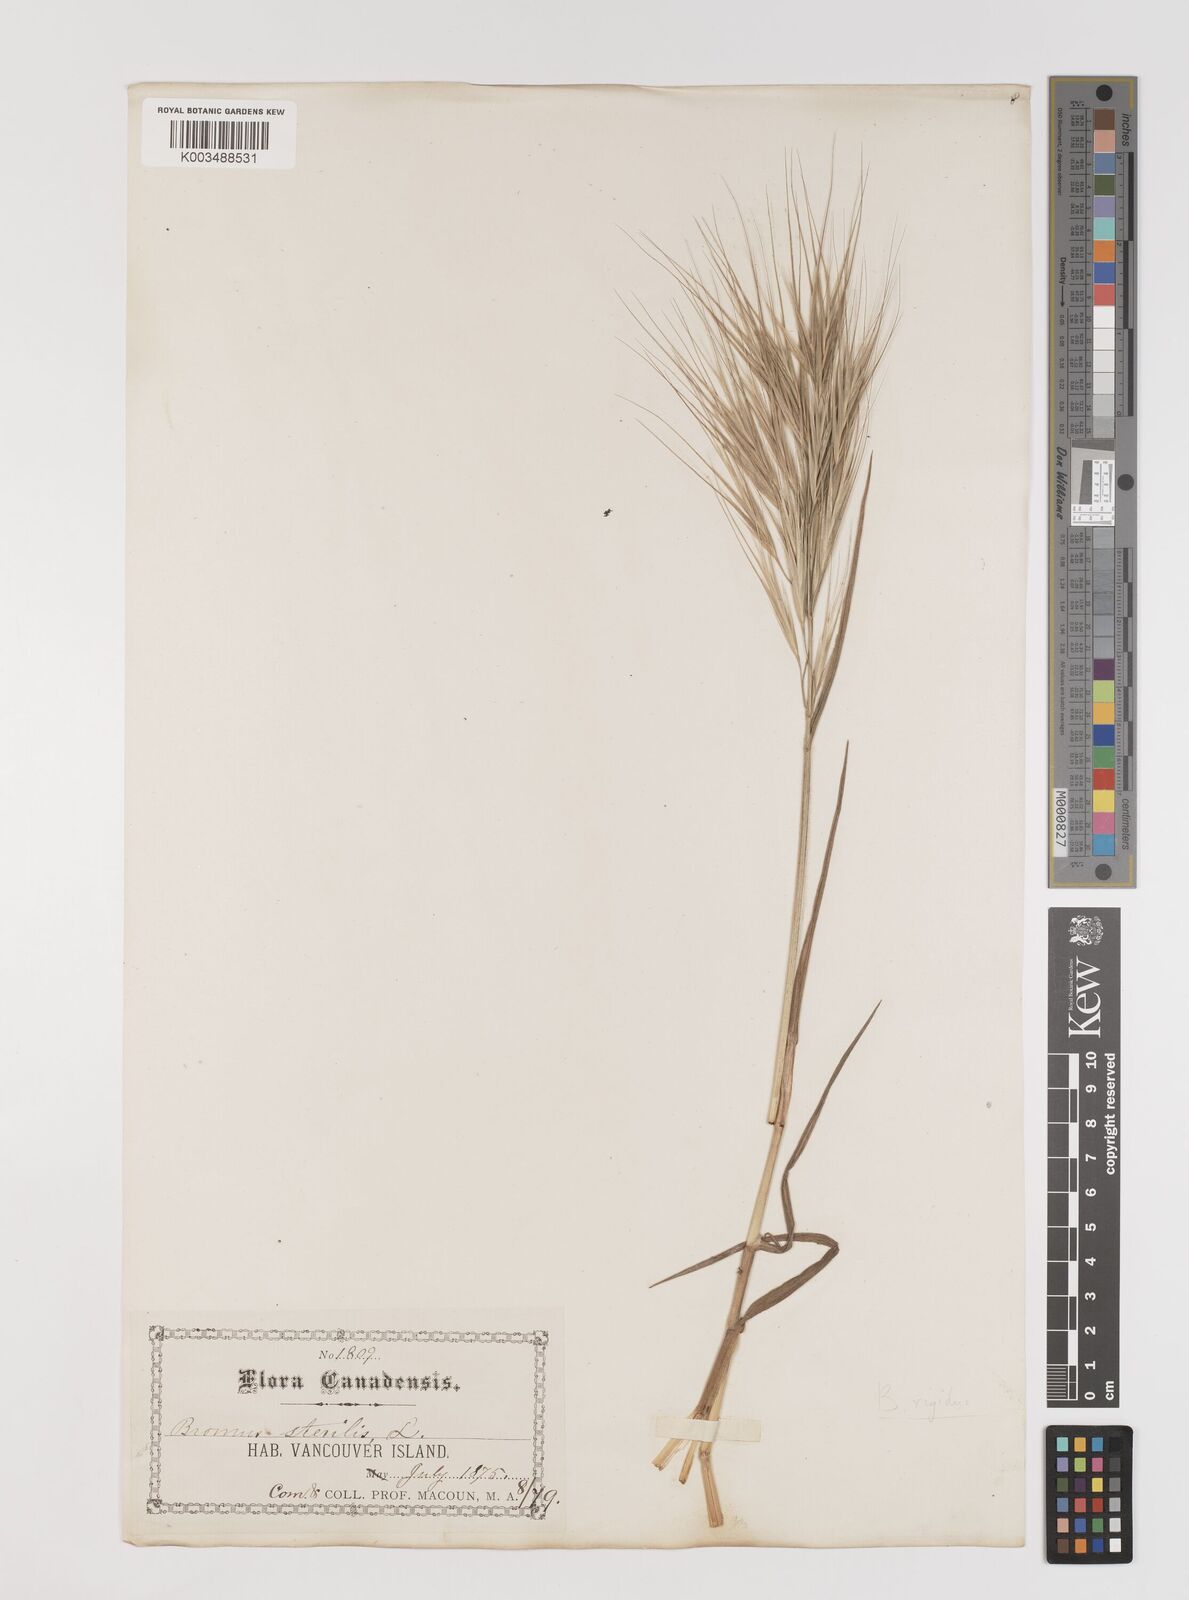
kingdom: Plantae
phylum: Tracheophyta
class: Liliopsida
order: Poales
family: Poaceae
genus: Bromus
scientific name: Bromus sterilis
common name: Poverty brome
